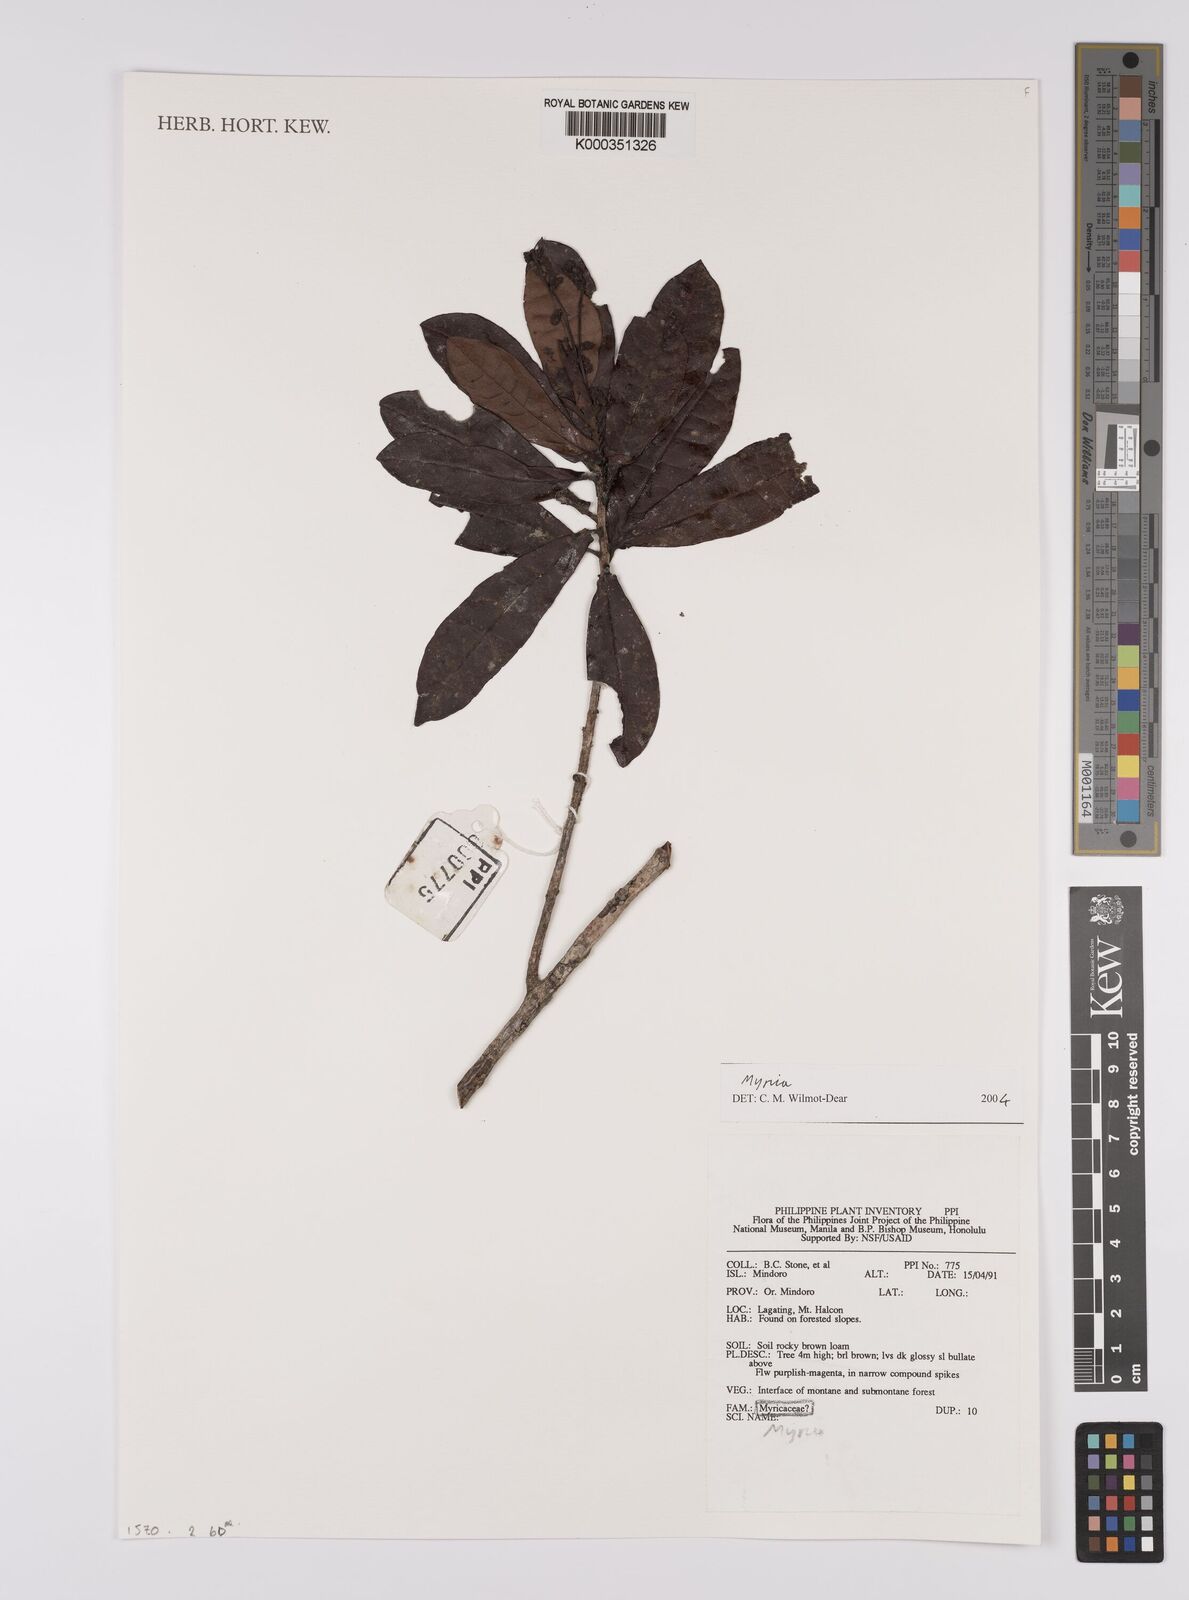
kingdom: Plantae
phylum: Tracheophyta
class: Magnoliopsida
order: Fagales
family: Myricaceae
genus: Myrica
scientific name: Myrica
